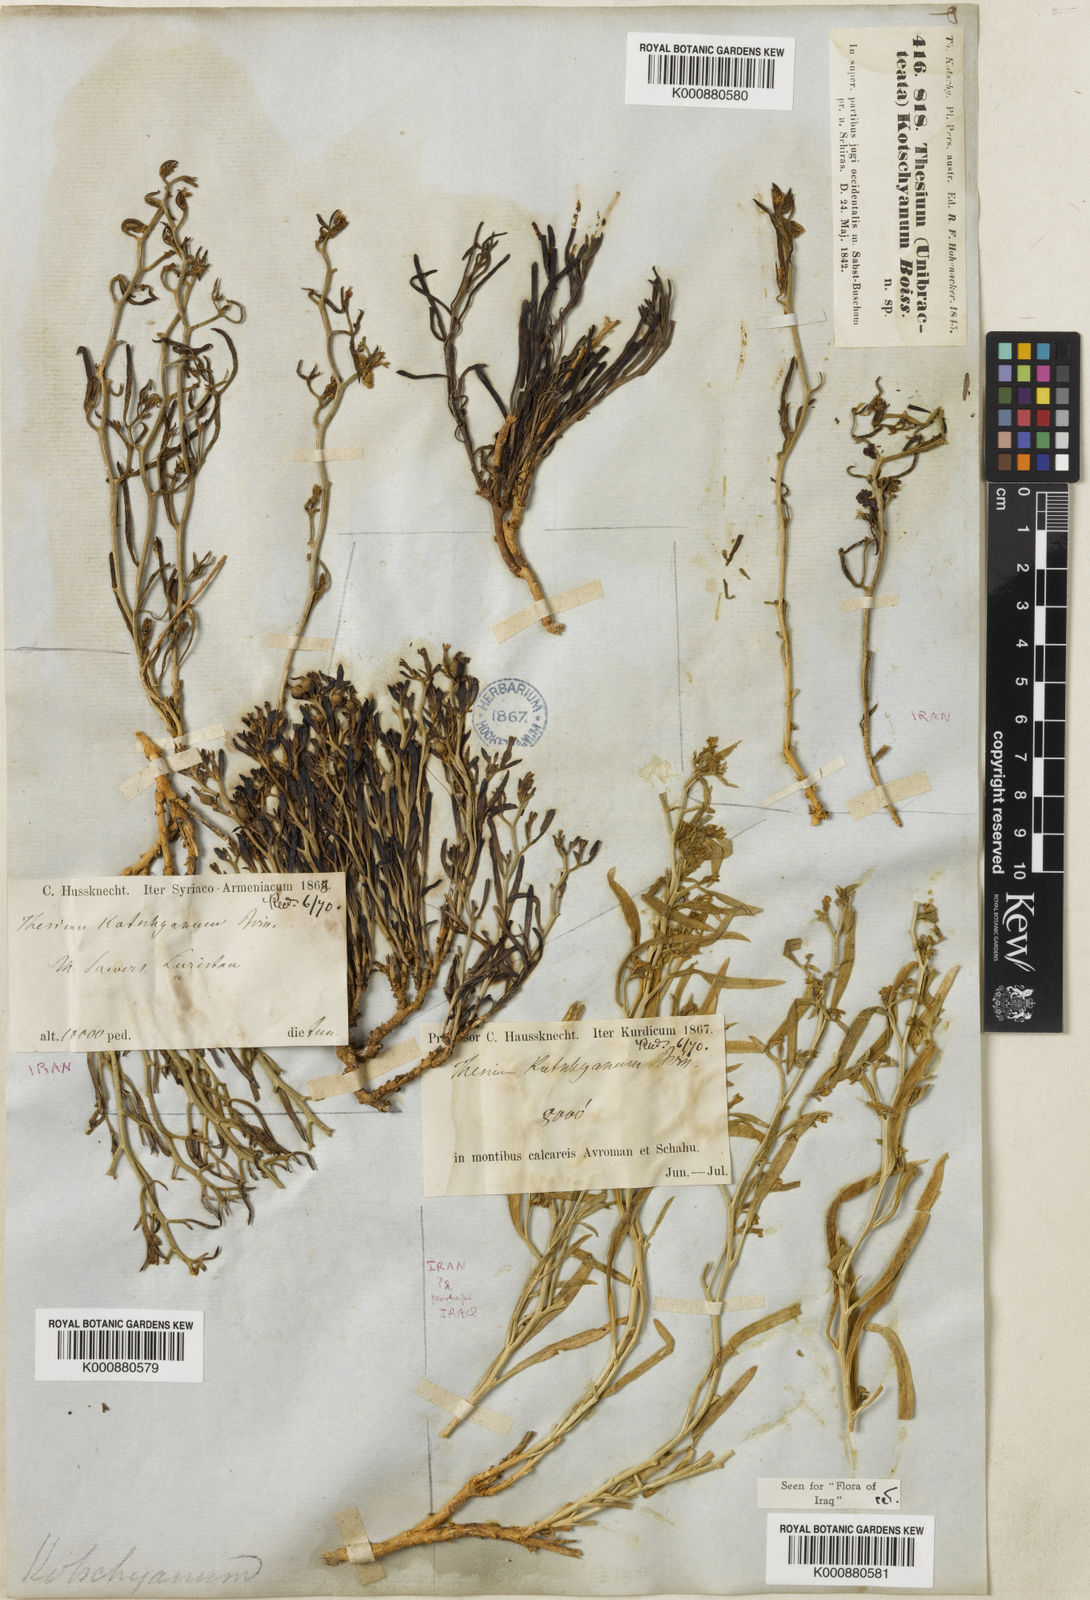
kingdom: Plantae
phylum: Tracheophyta
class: Magnoliopsida
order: Santalales
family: Thesiaceae
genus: Thesium
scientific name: Thesium kotschyanum
